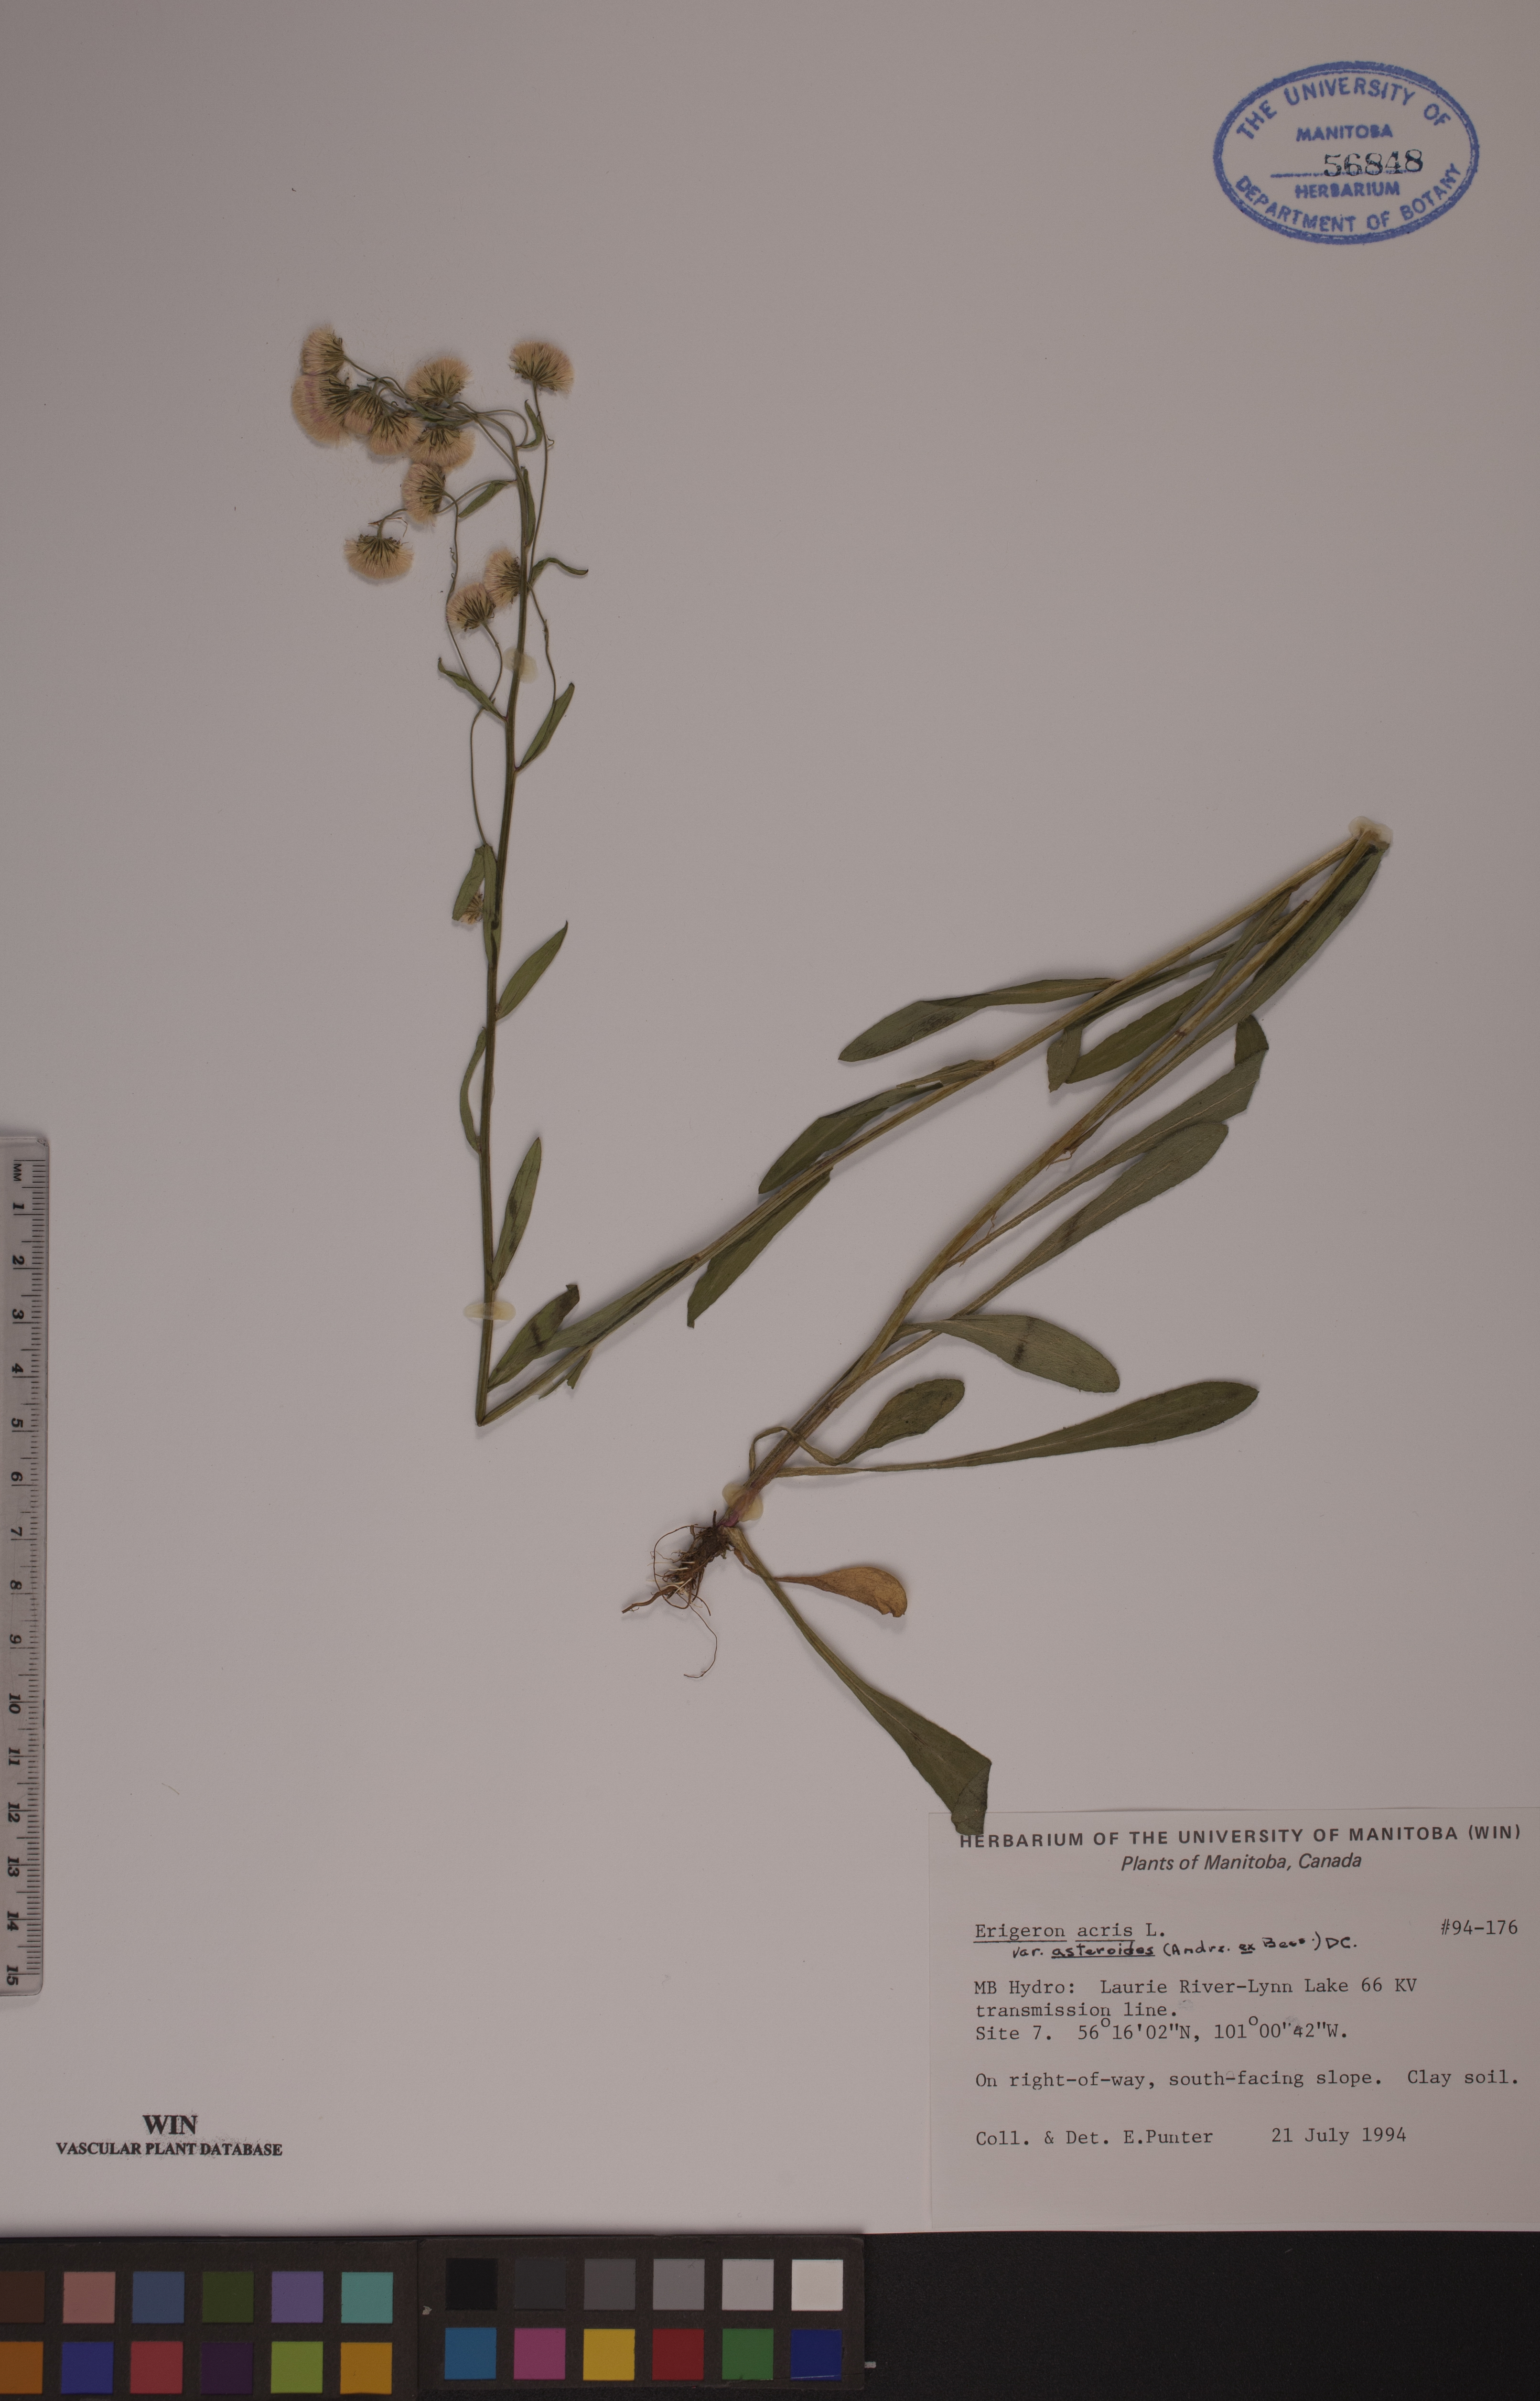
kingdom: Plantae
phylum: Tracheophyta
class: Magnoliopsida
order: Asterales
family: Asteraceae
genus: Erigeron
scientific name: Erigeron podolicus
